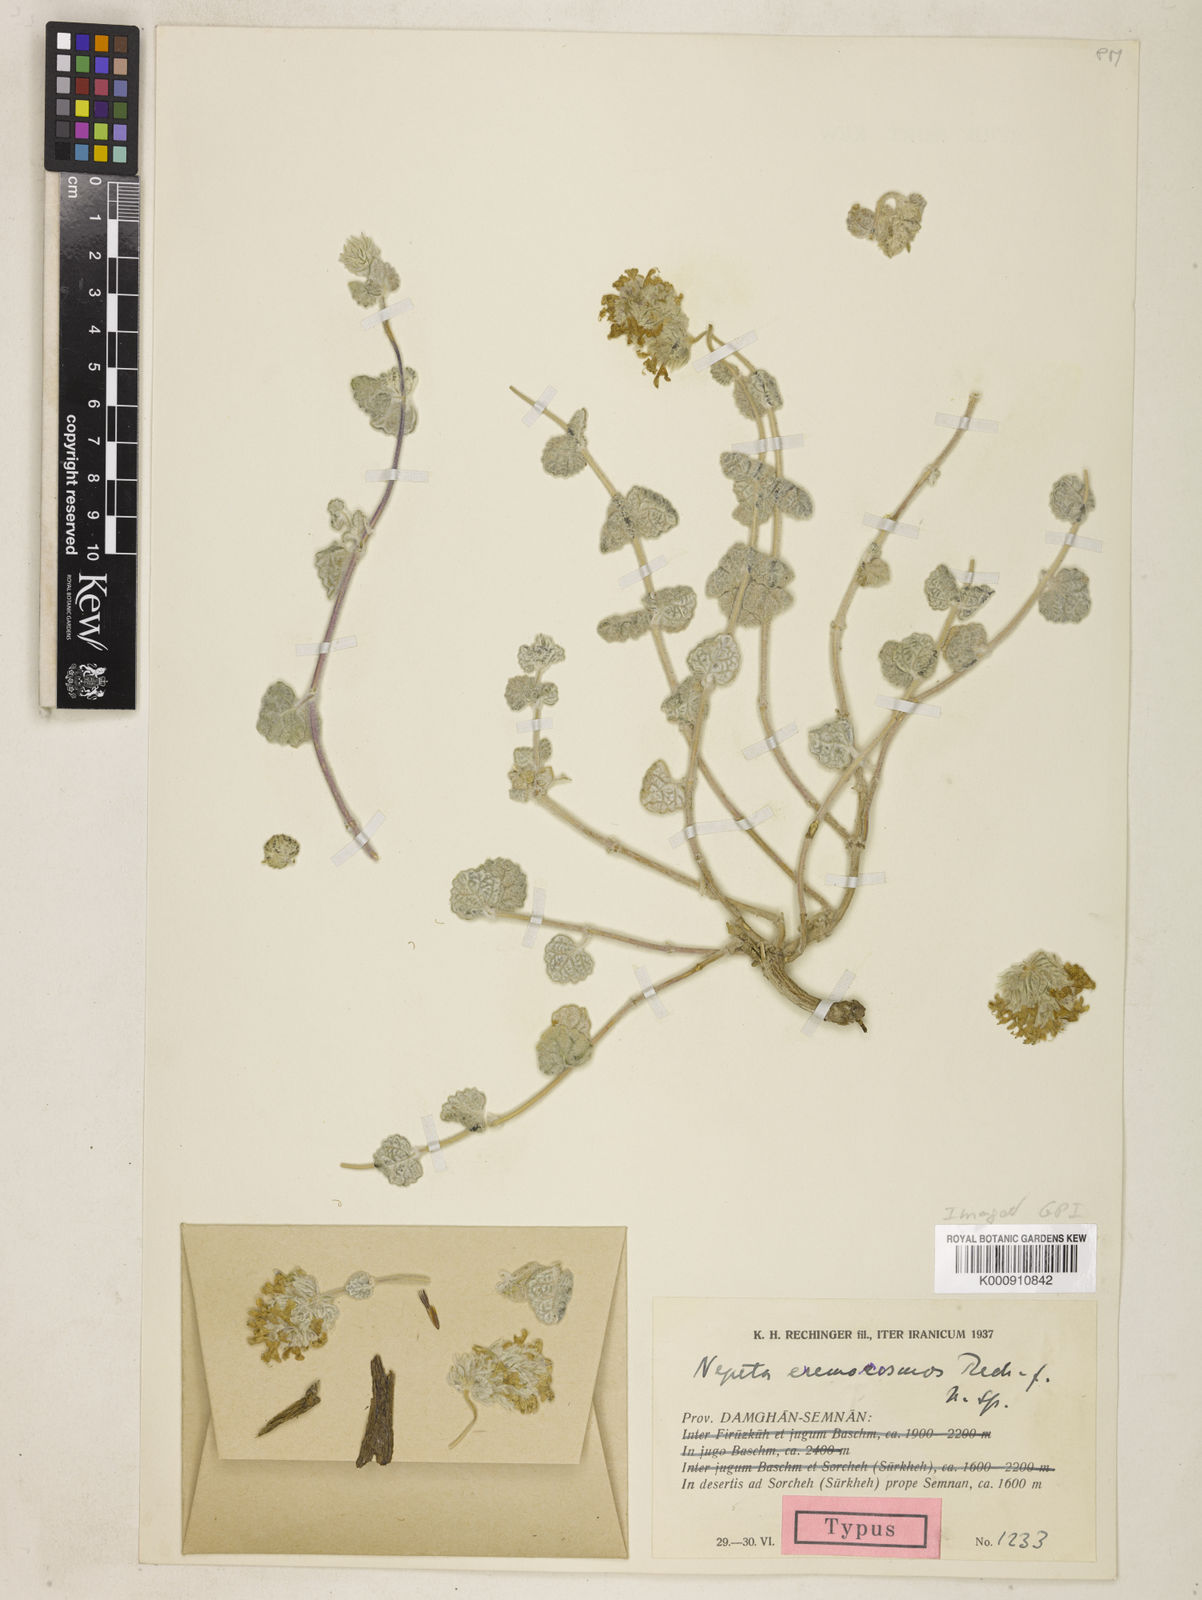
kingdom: Plantae
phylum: Tracheophyta
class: Magnoliopsida
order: Lamiales
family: Lamiaceae
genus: Nepeta
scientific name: Nepeta eremokosmos
